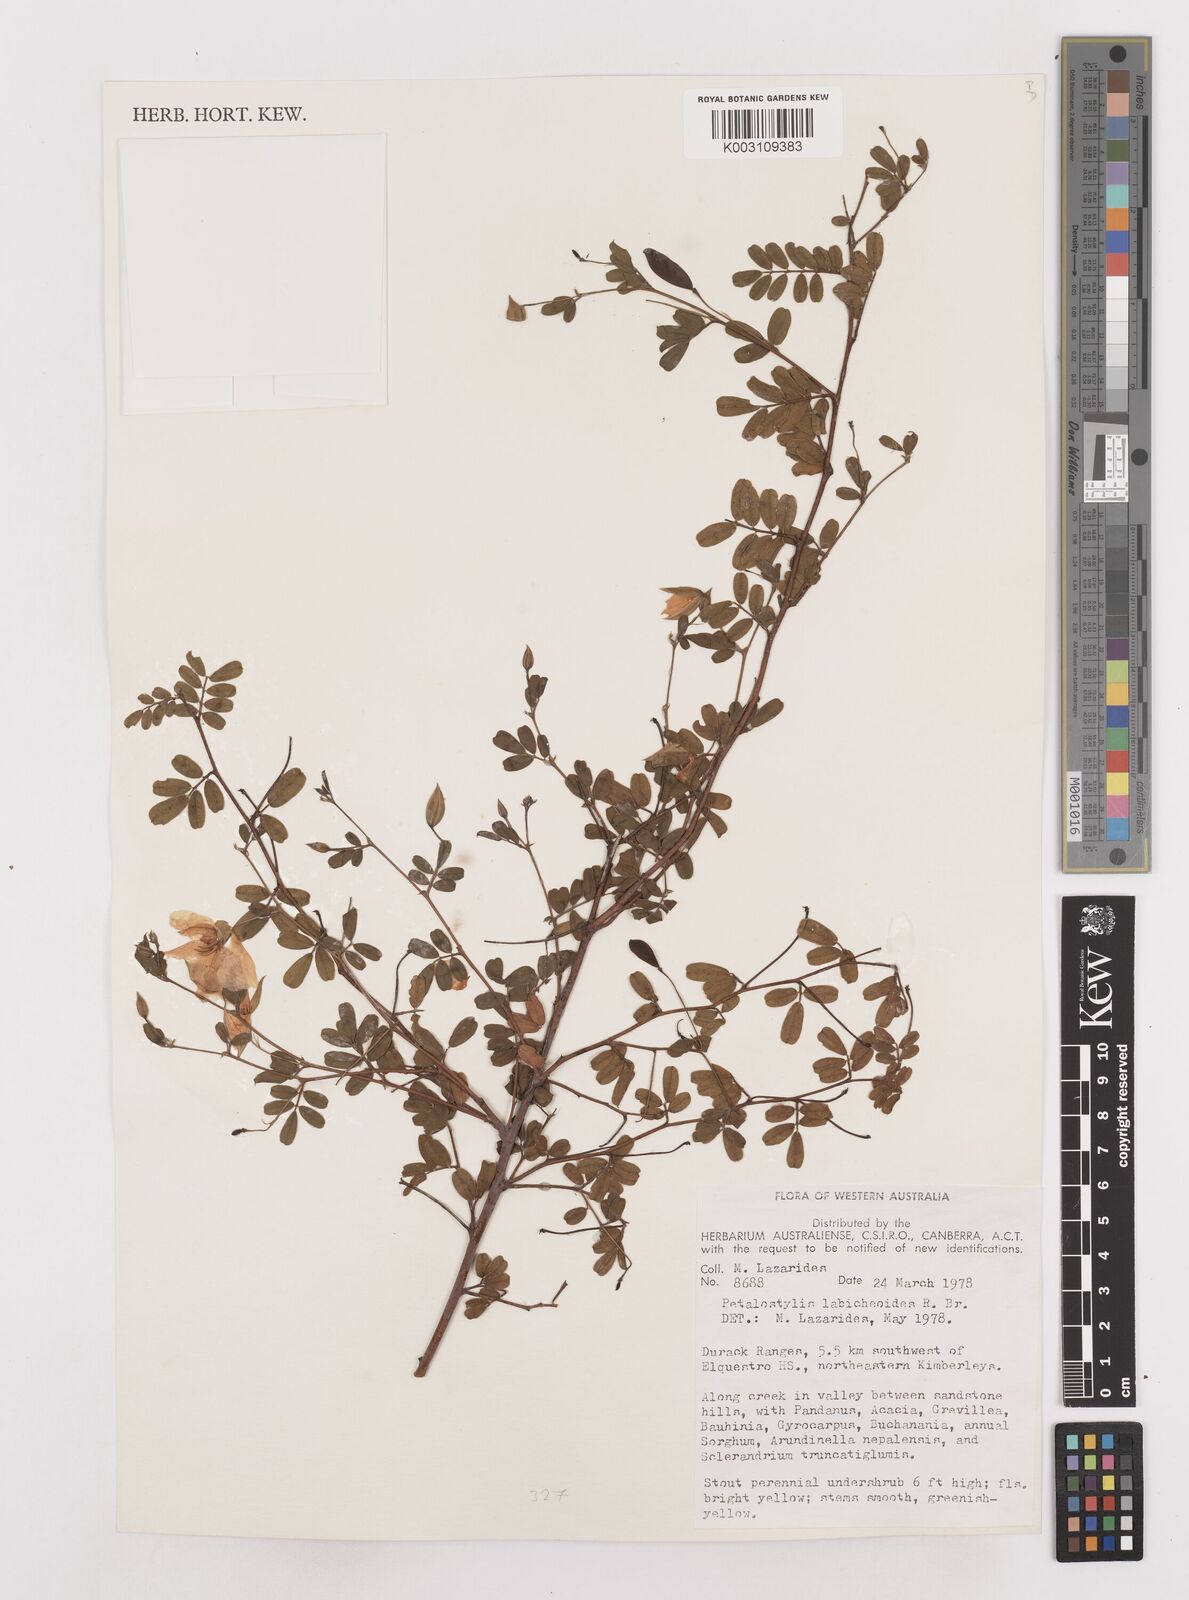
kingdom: Plantae
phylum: Tracheophyta
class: Magnoliopsida
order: Fabales
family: Fabaceae
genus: Petalostylis
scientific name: Petalostylis labicheoides
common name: Butterfly bush
